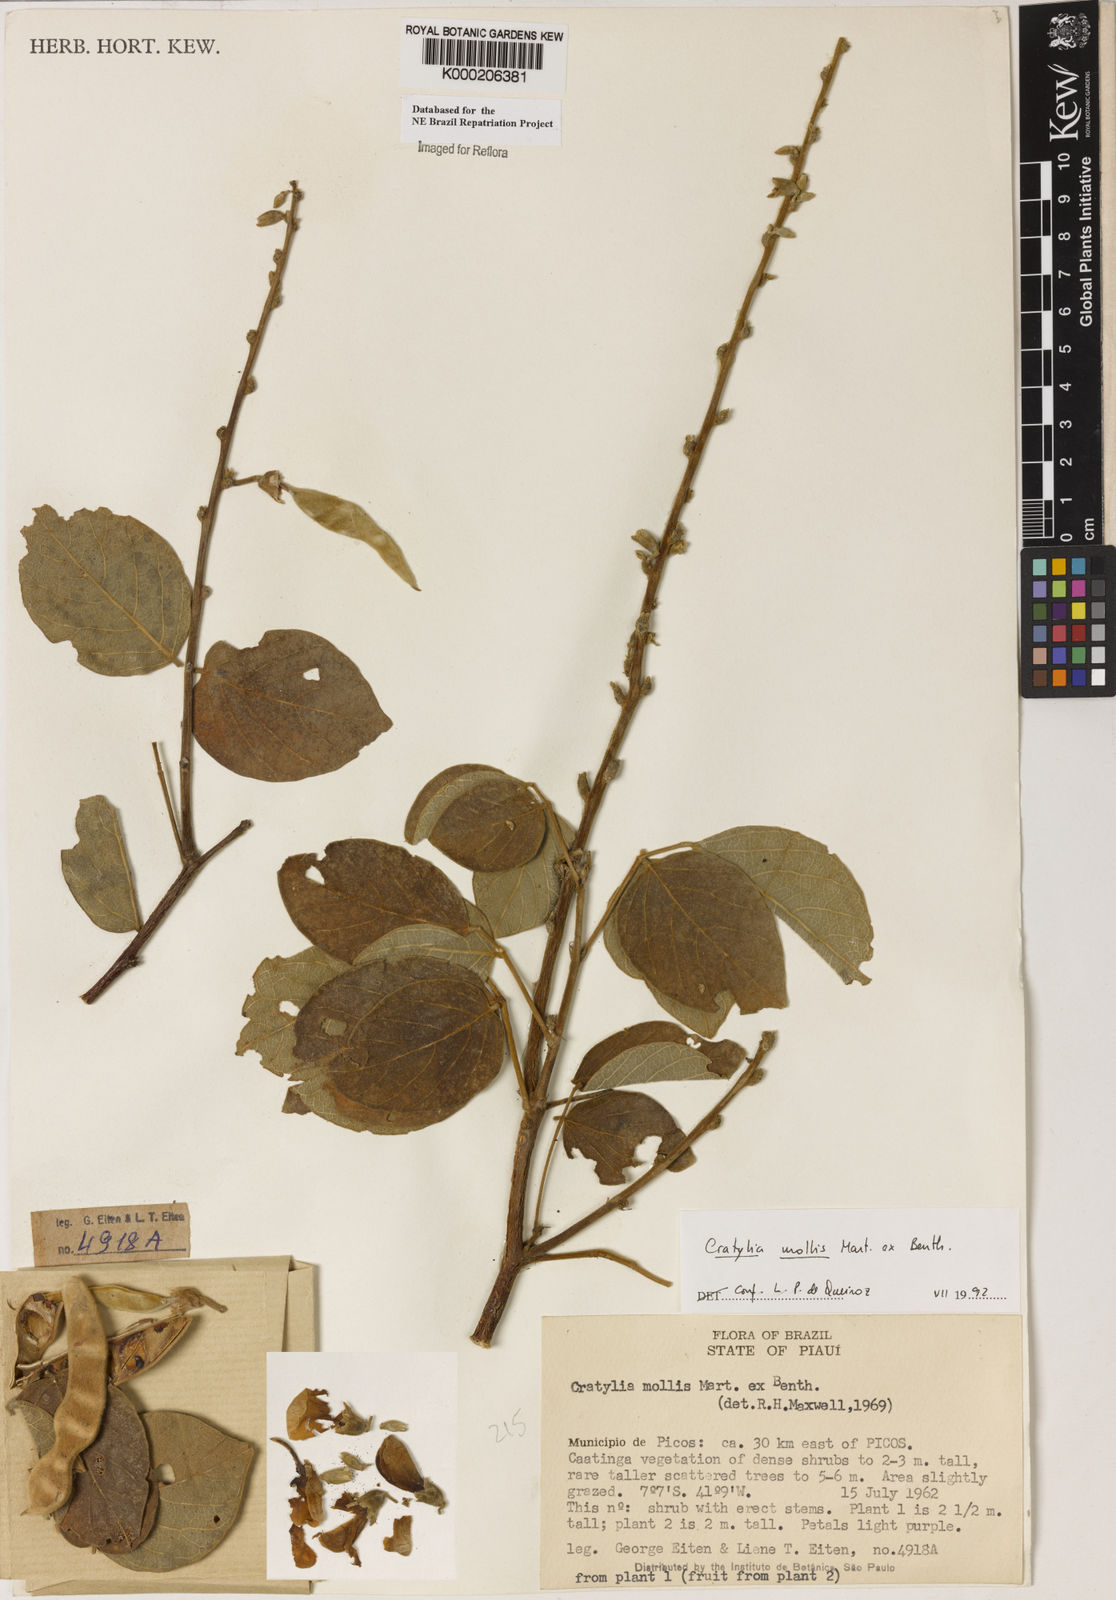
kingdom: Plantae
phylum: Tracheophyta
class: Magnoliopsida
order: Fabales
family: Fabaceae
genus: Cratylia
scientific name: Cratylia mollis
